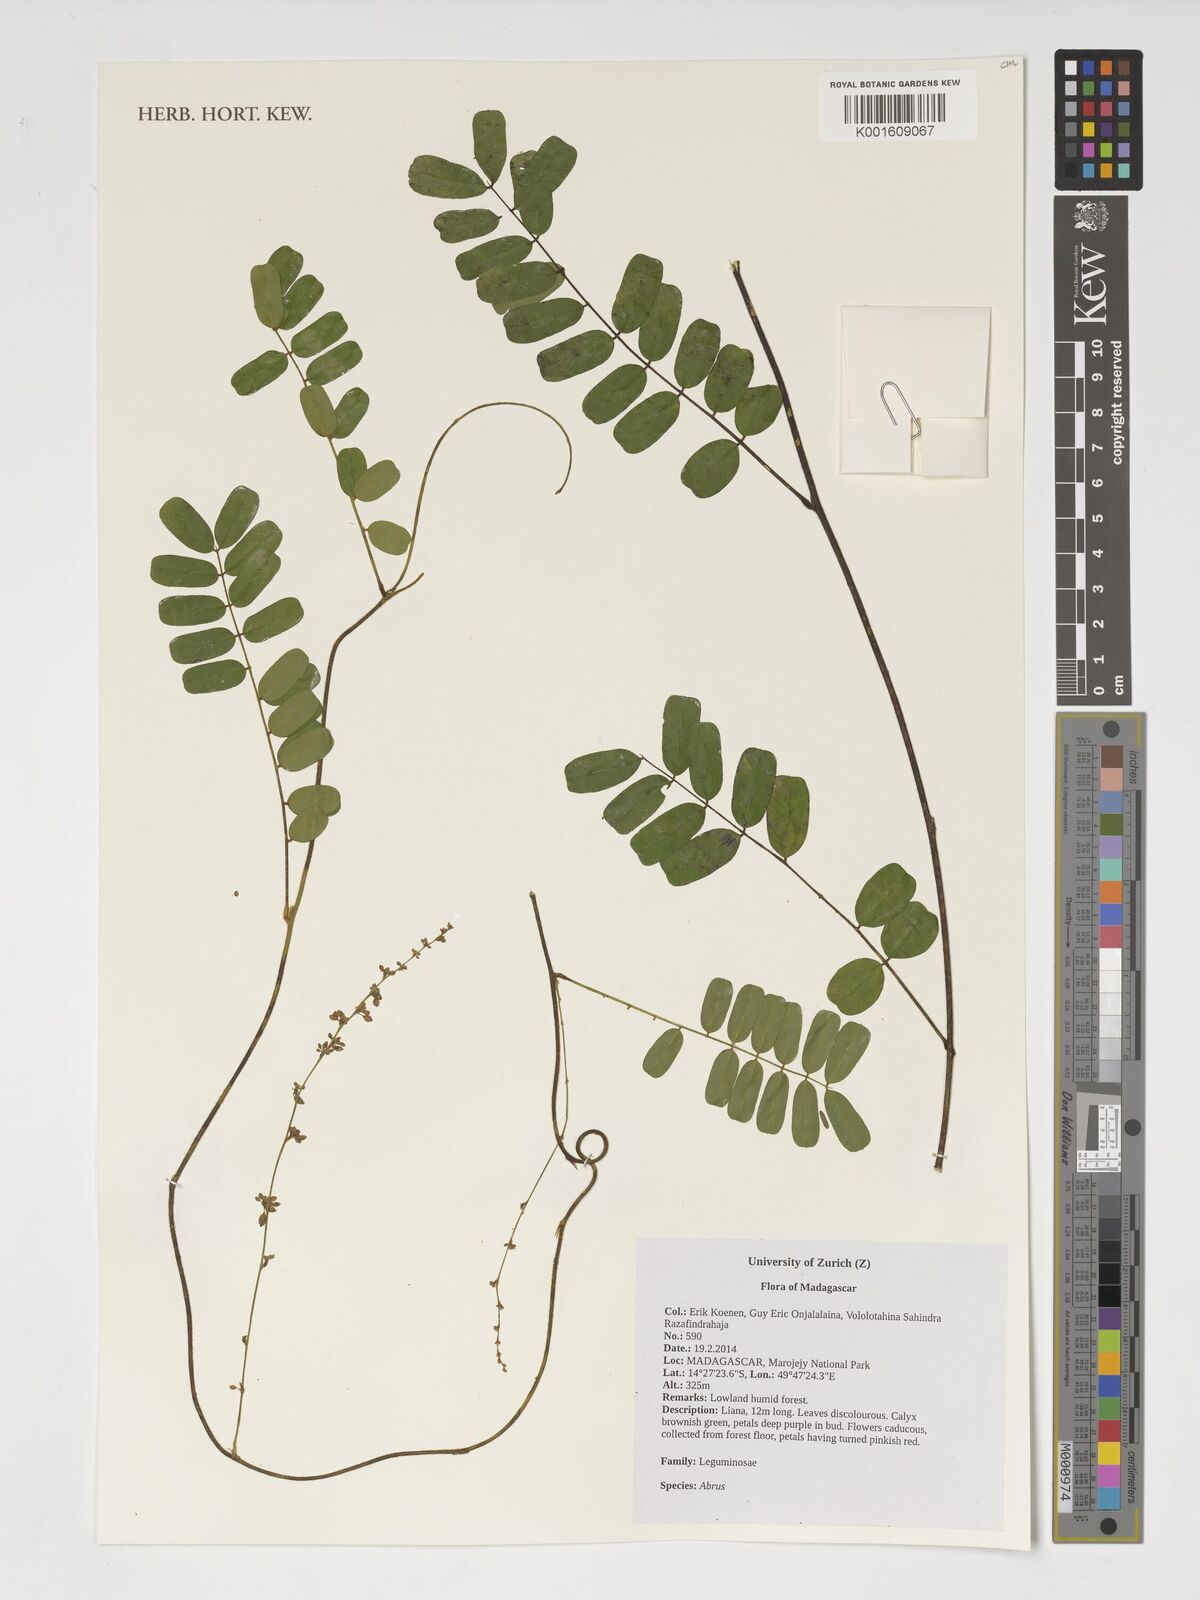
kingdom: Plantae
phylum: Tracheophyta
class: Magnoliopsida
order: Fabales
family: Fabaceae
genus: Abrus
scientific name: Abrus
